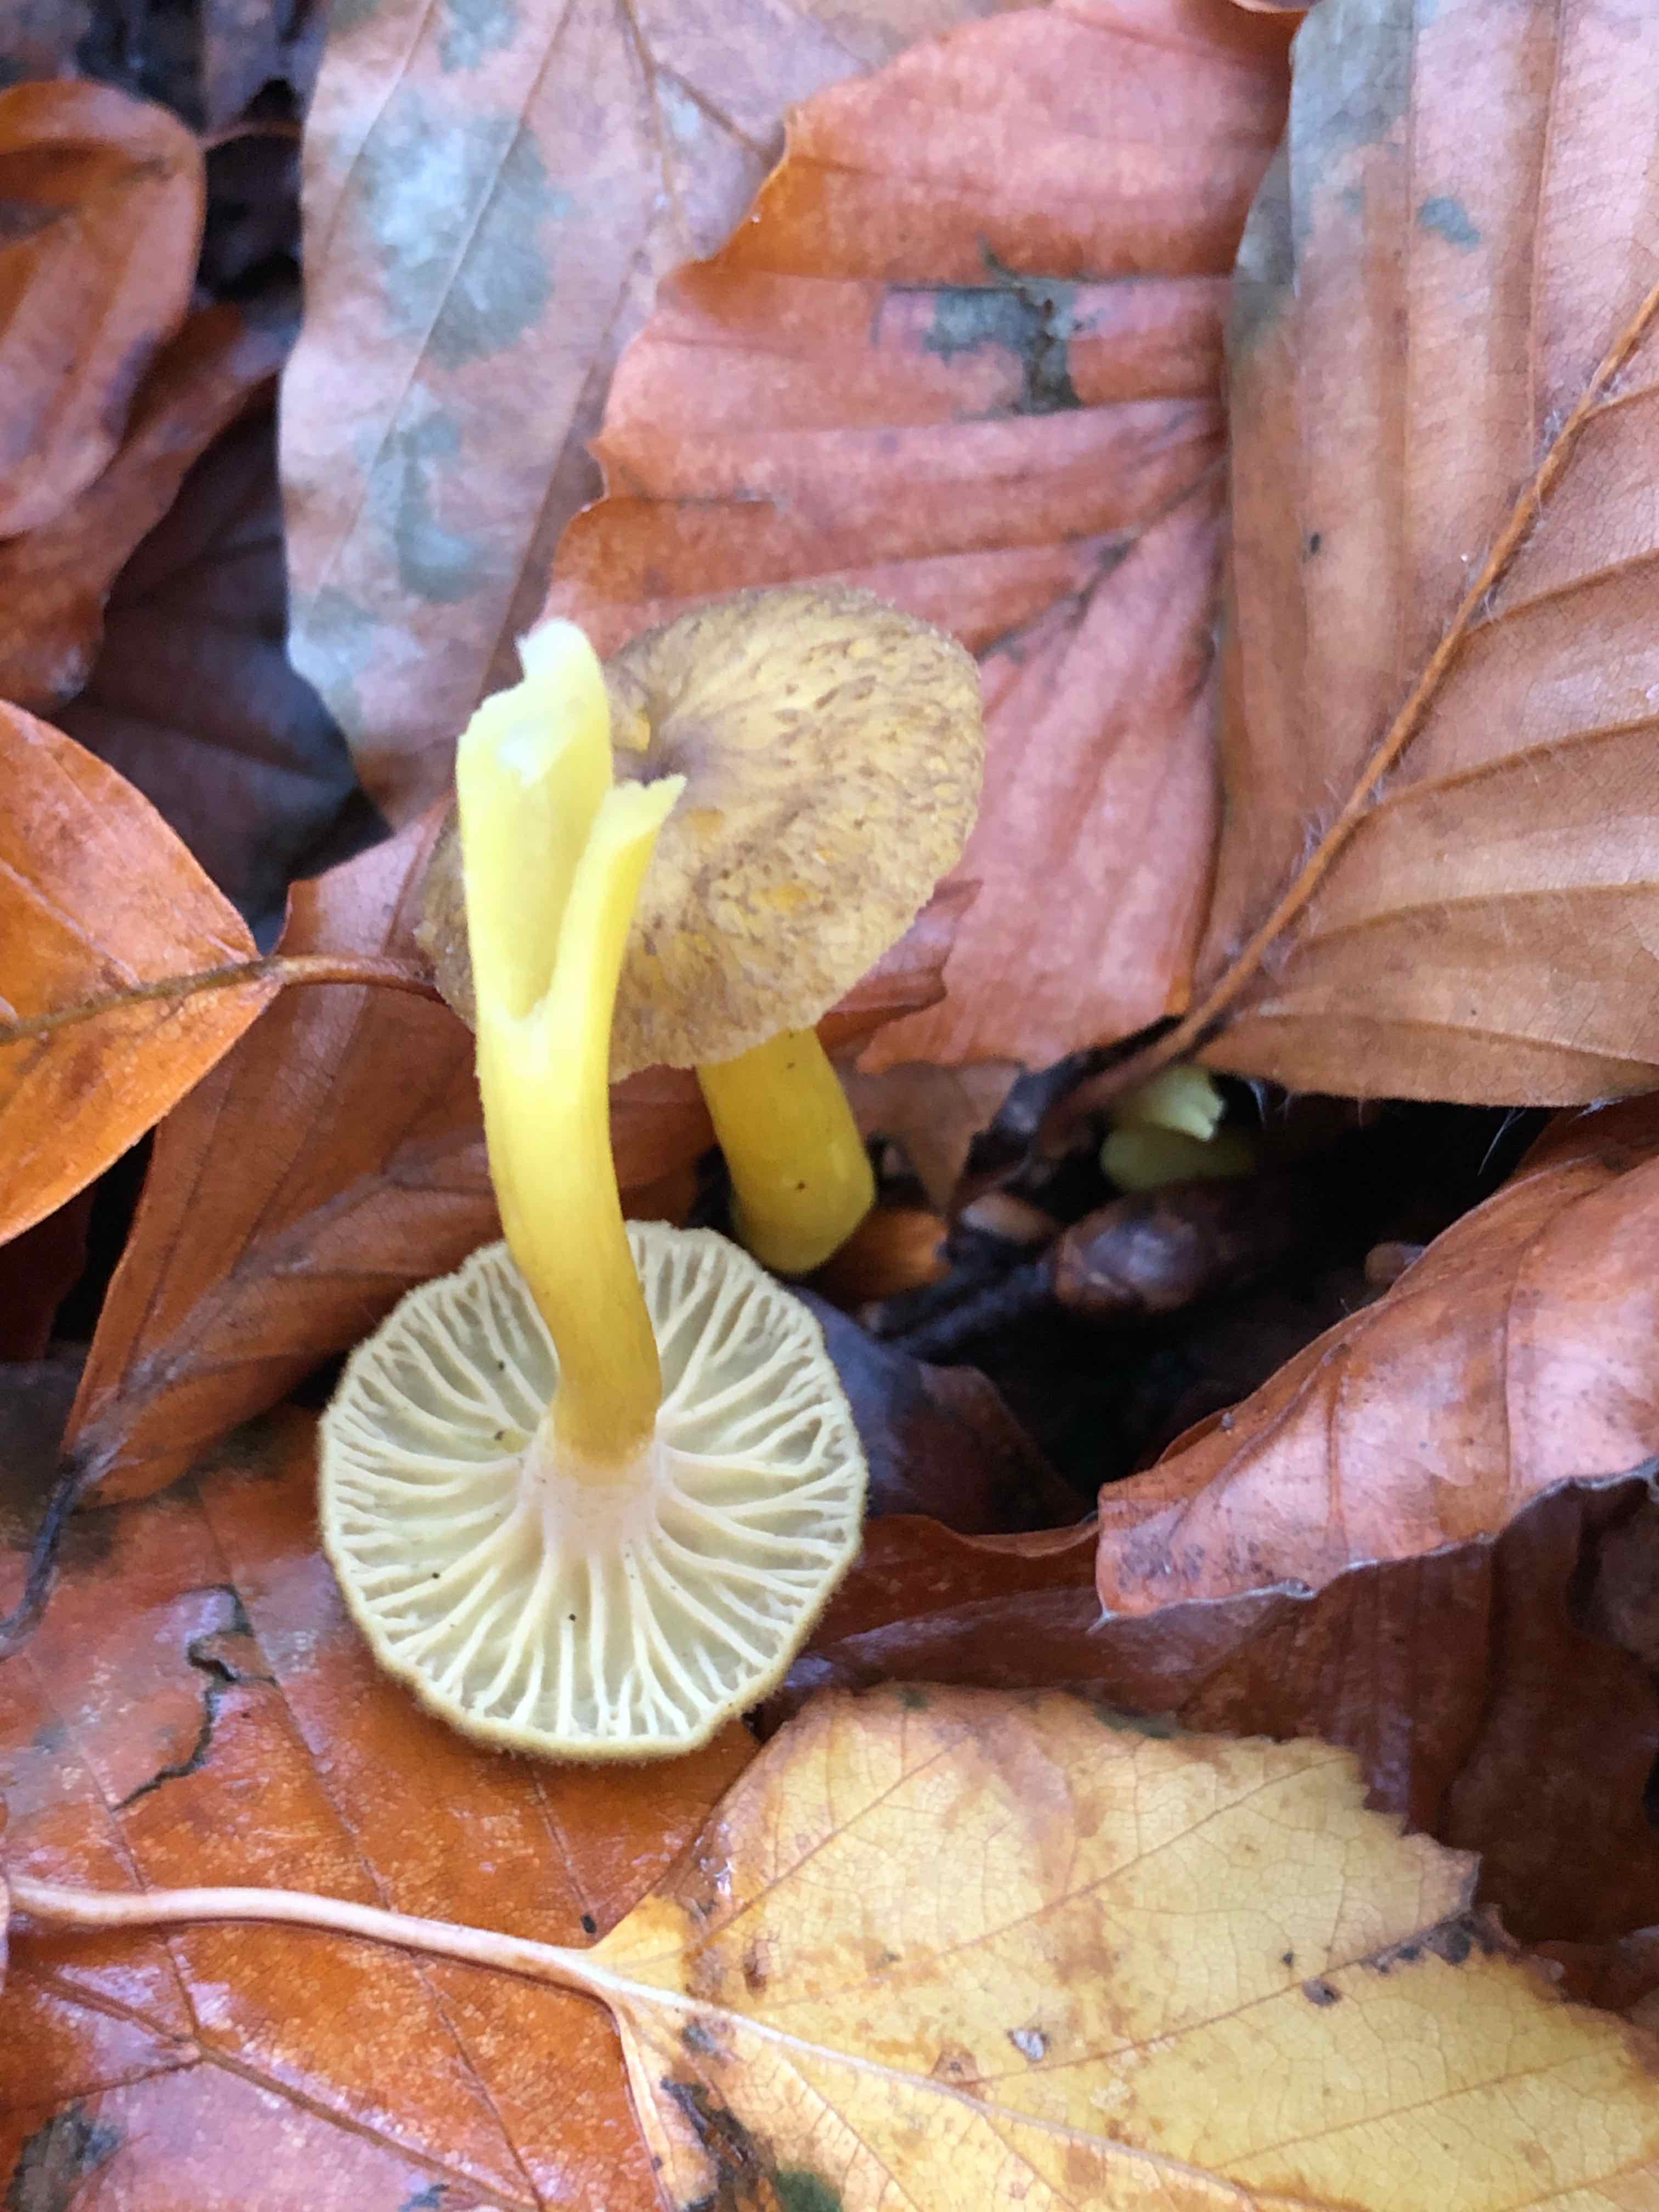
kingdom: Fungi
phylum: Basidiomycota
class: Agaricomycetes
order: Cantharellales
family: Hydnaceae
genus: Craterellus
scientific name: Craterellus tubaeformis
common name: tragt-kantarel
